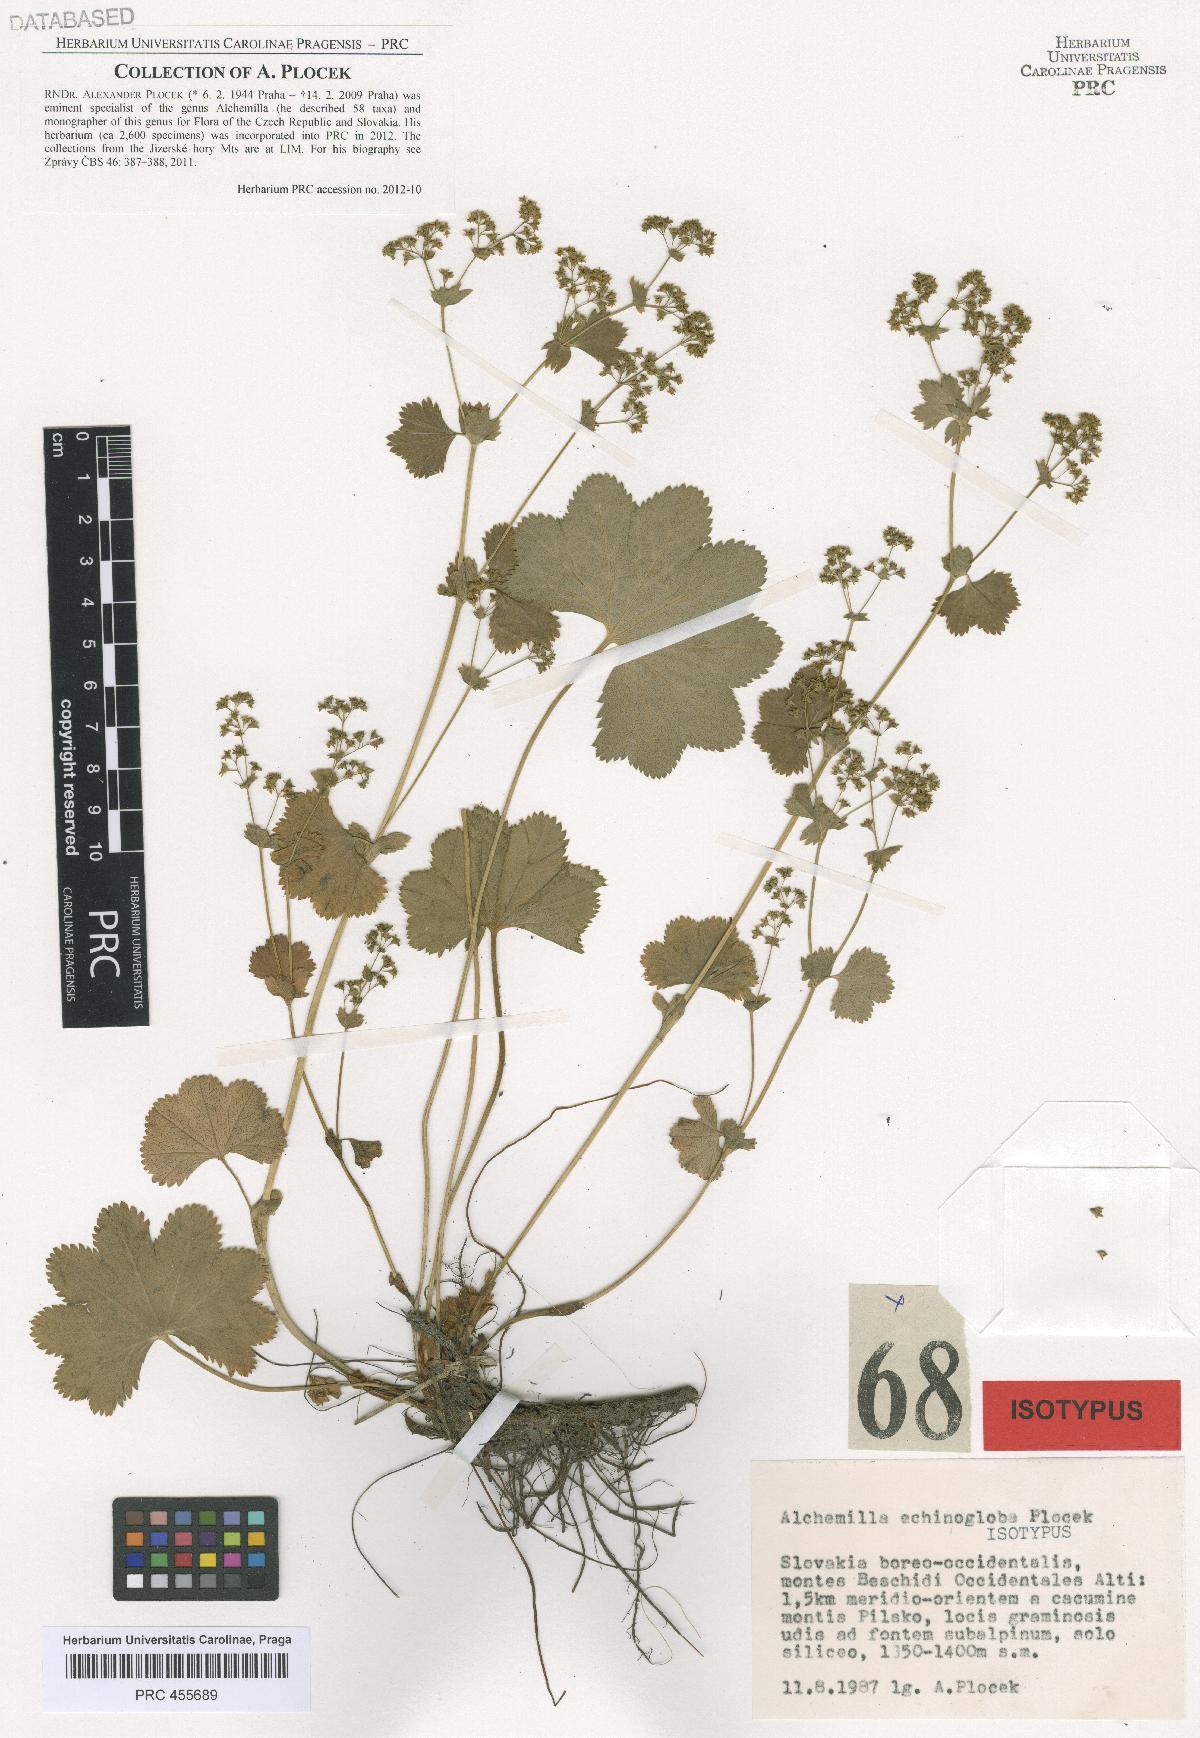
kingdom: Plantae
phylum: Tracheophyta
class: Magnoliopsida
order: Rosales
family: Rosaceae
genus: Alchemilla
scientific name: Alchemilla echinogloba
